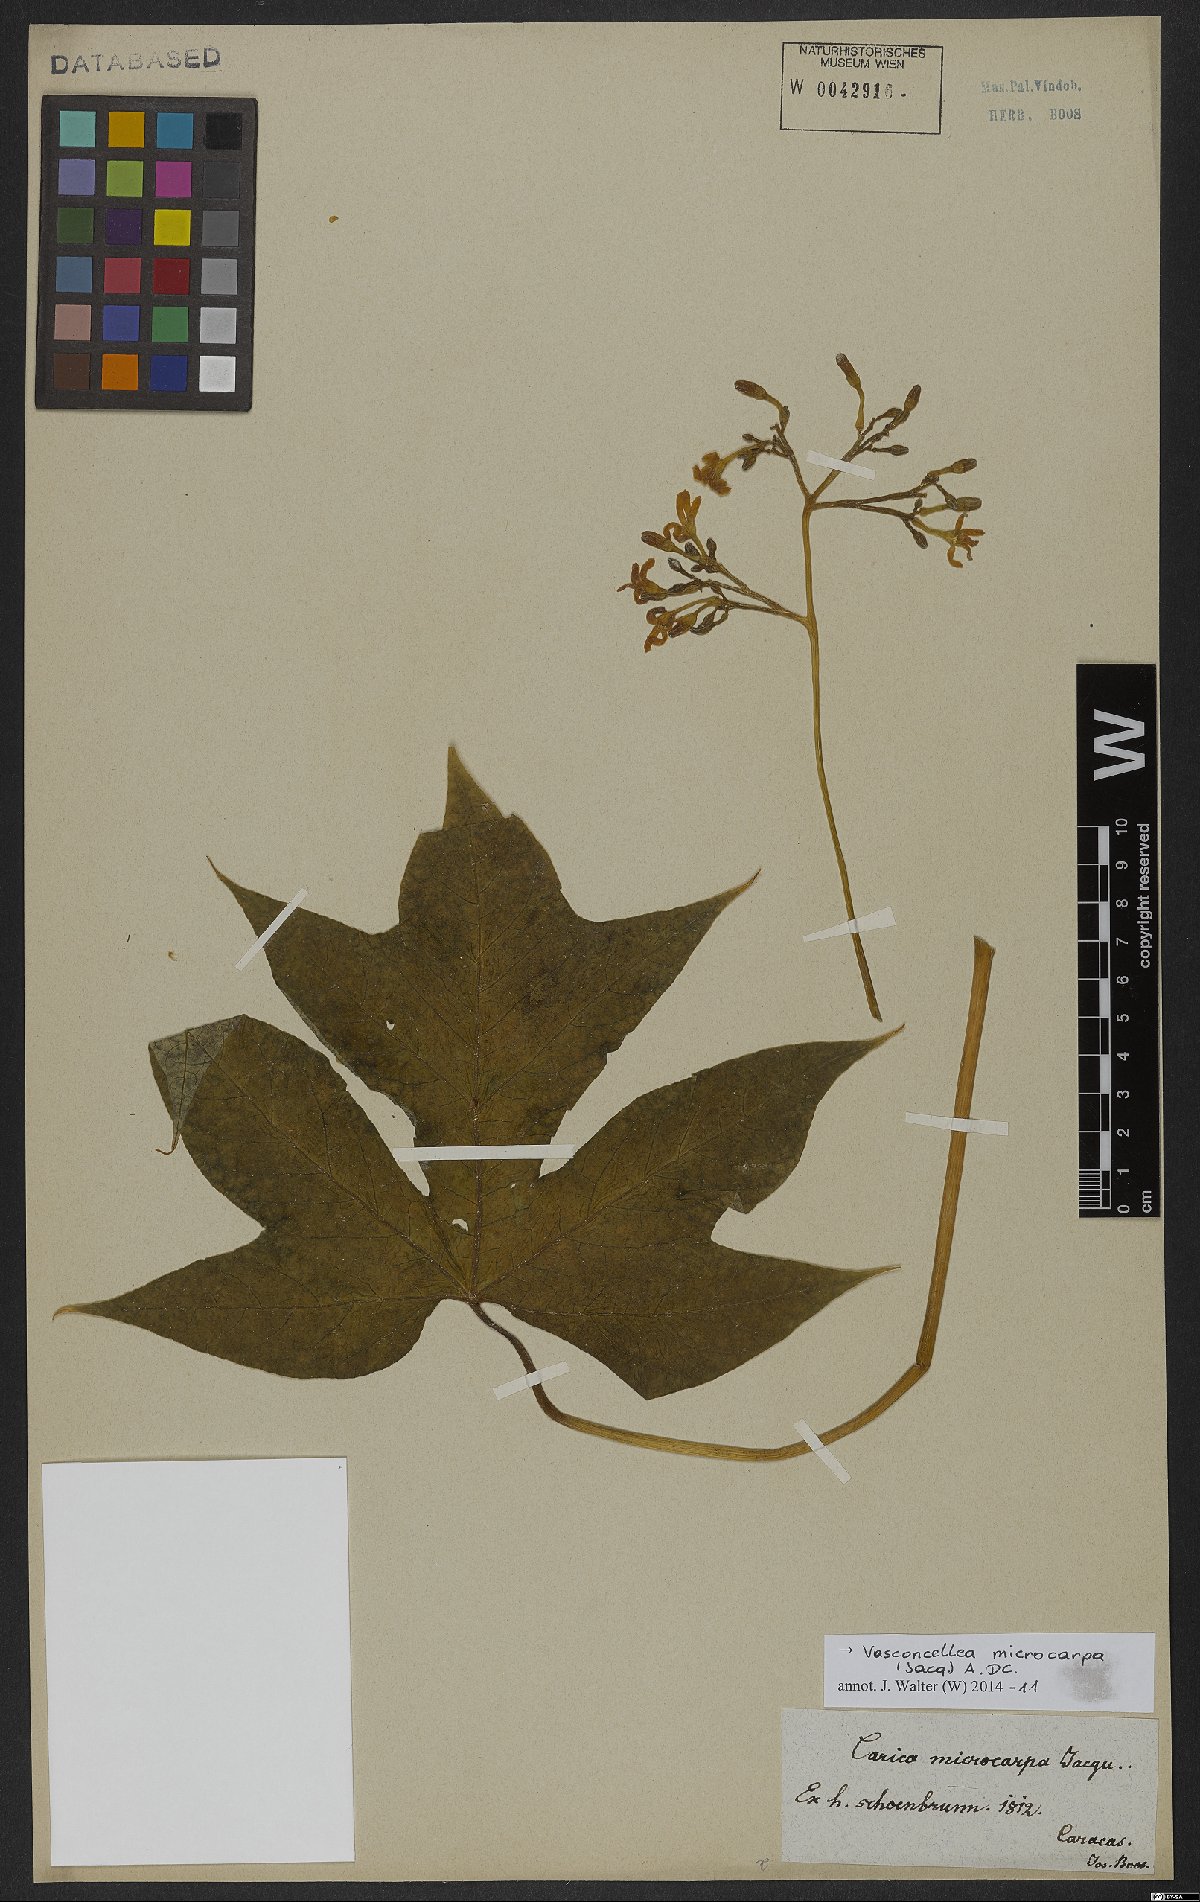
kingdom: Plantae
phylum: Tracheophyta
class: Magnoliopsida
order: Brassicales
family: Caricaceae
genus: Vasconcellea
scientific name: Vasconcellea microcarpa
